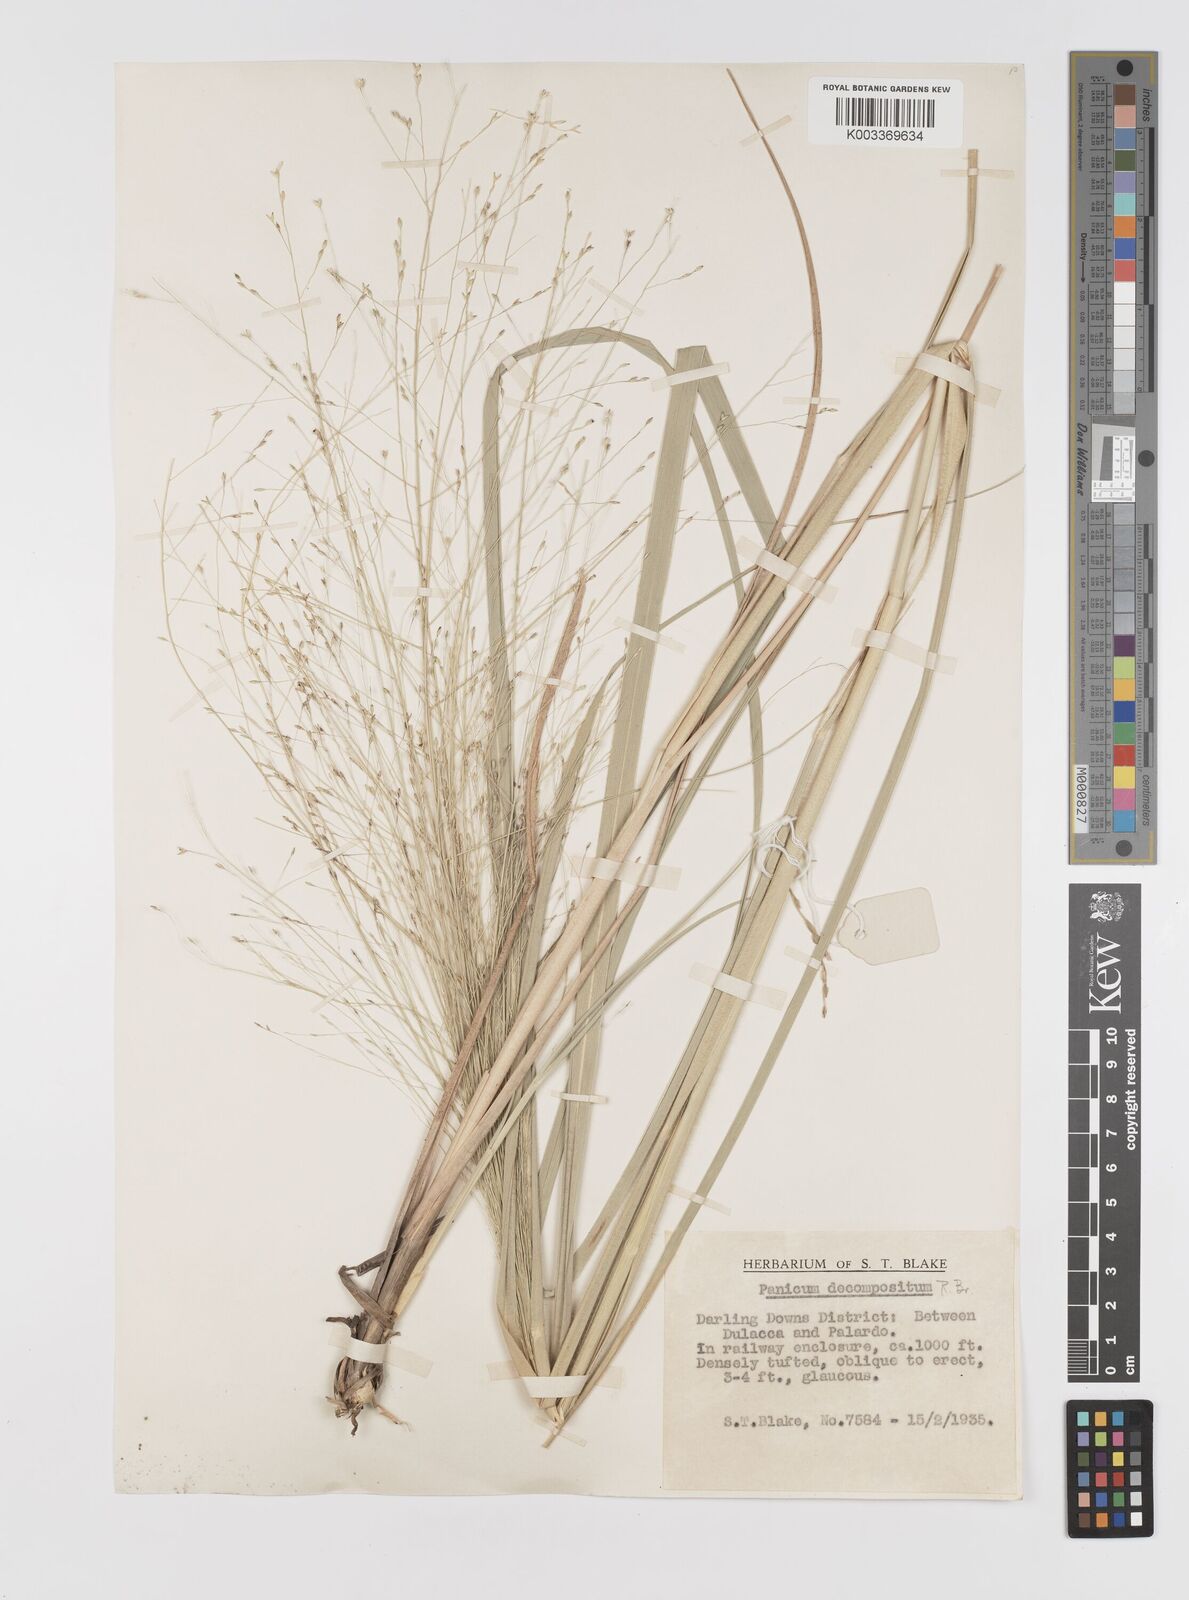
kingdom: Plantae
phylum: Tracheophyta
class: Liliopsida
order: Poales
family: Poaceae
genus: Panicum
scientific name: Panicum decompositum
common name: Australian millet
